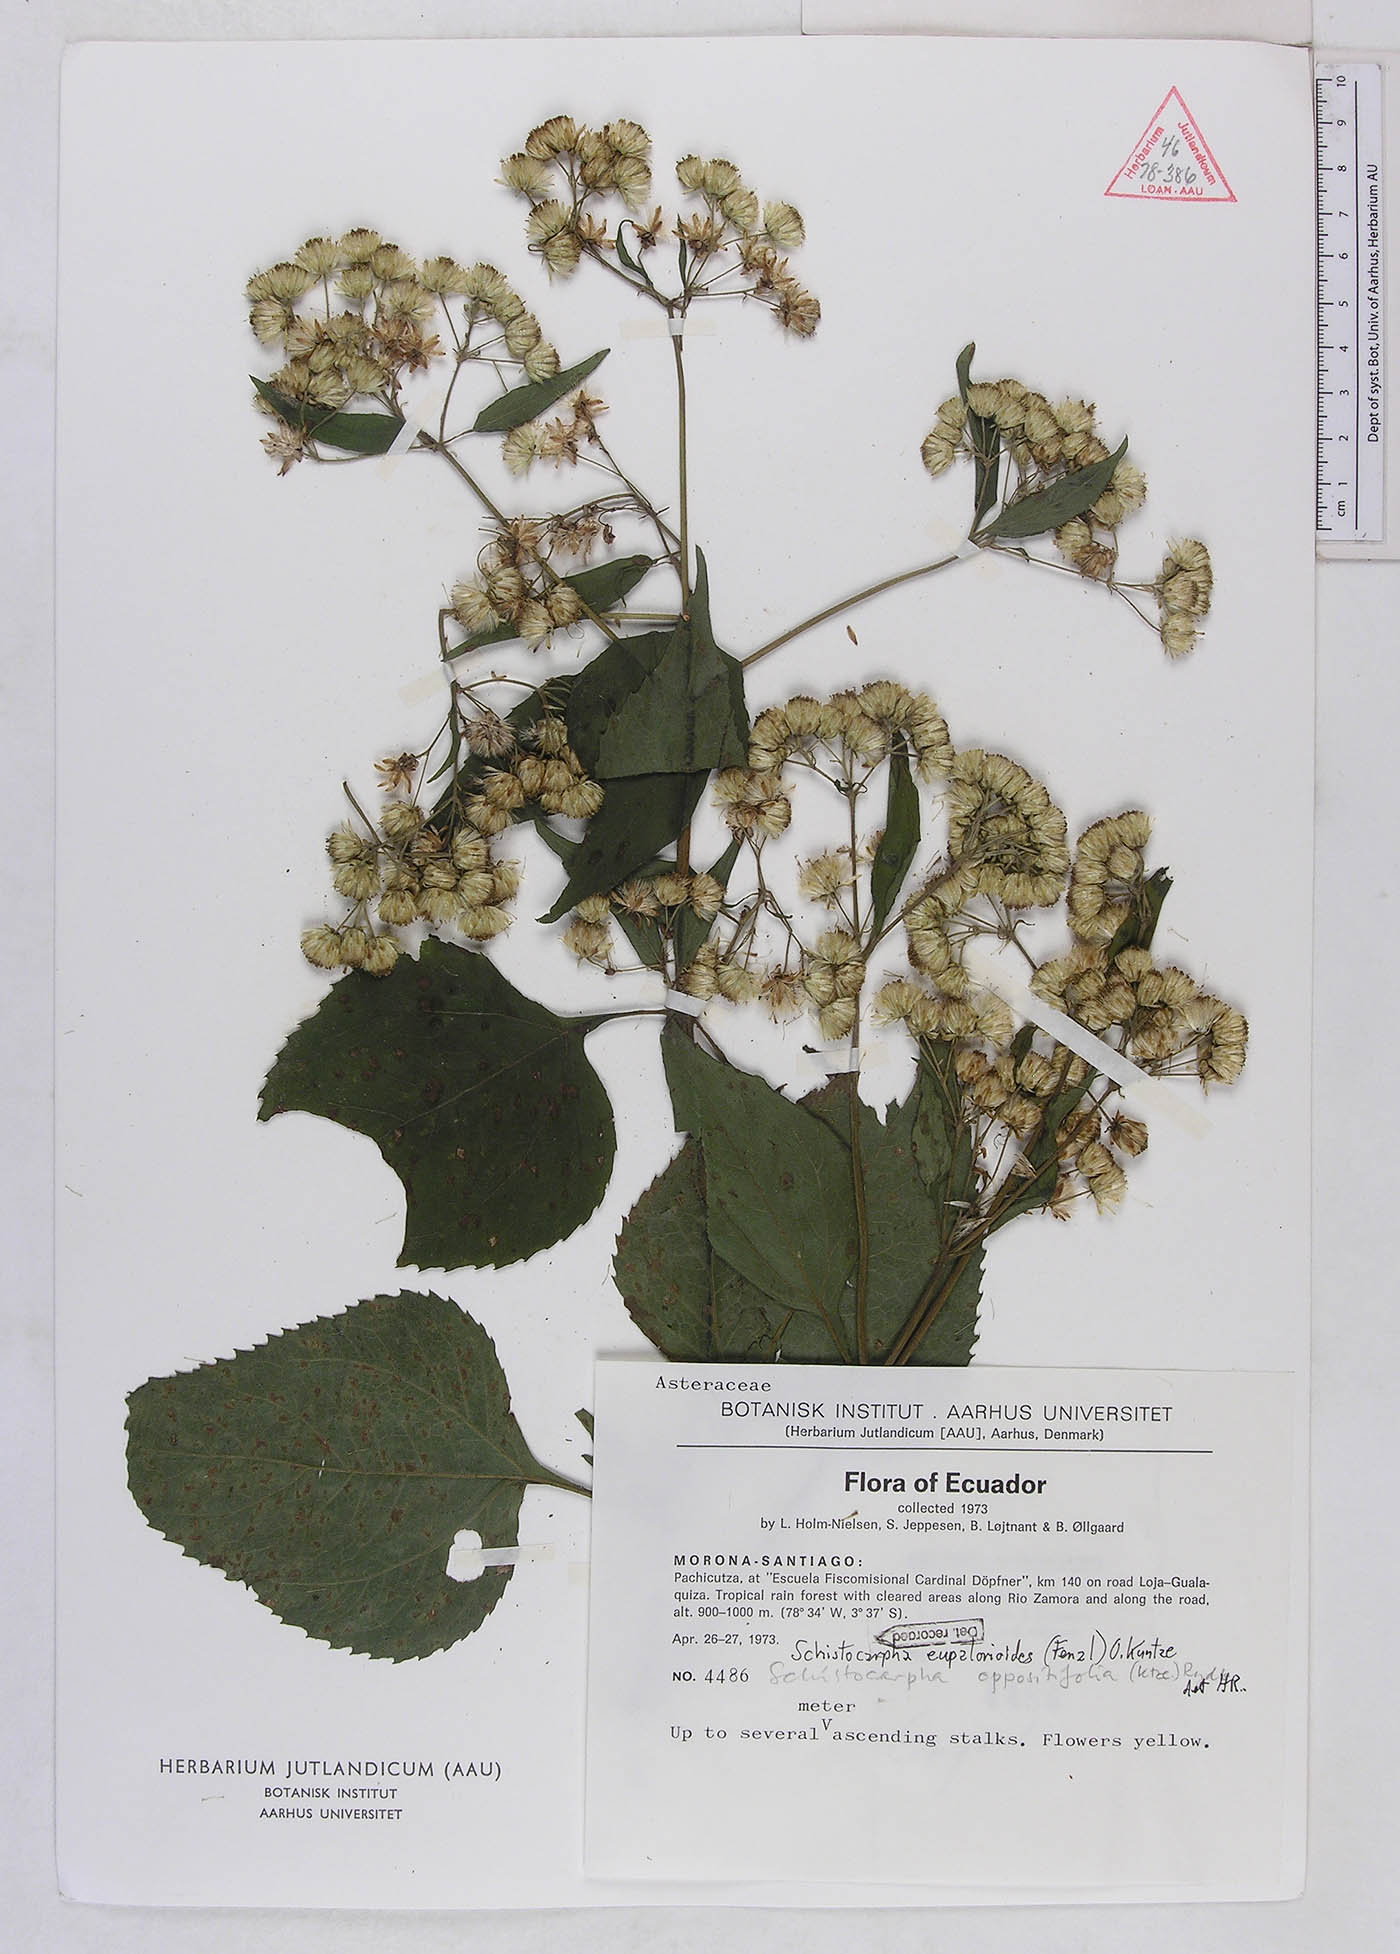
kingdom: Plantae
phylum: Tracheophyta
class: Magnoliopsida
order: Asterales
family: Asteraceae
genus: Schistocarpha
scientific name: Schistocarpha eupatorioides
